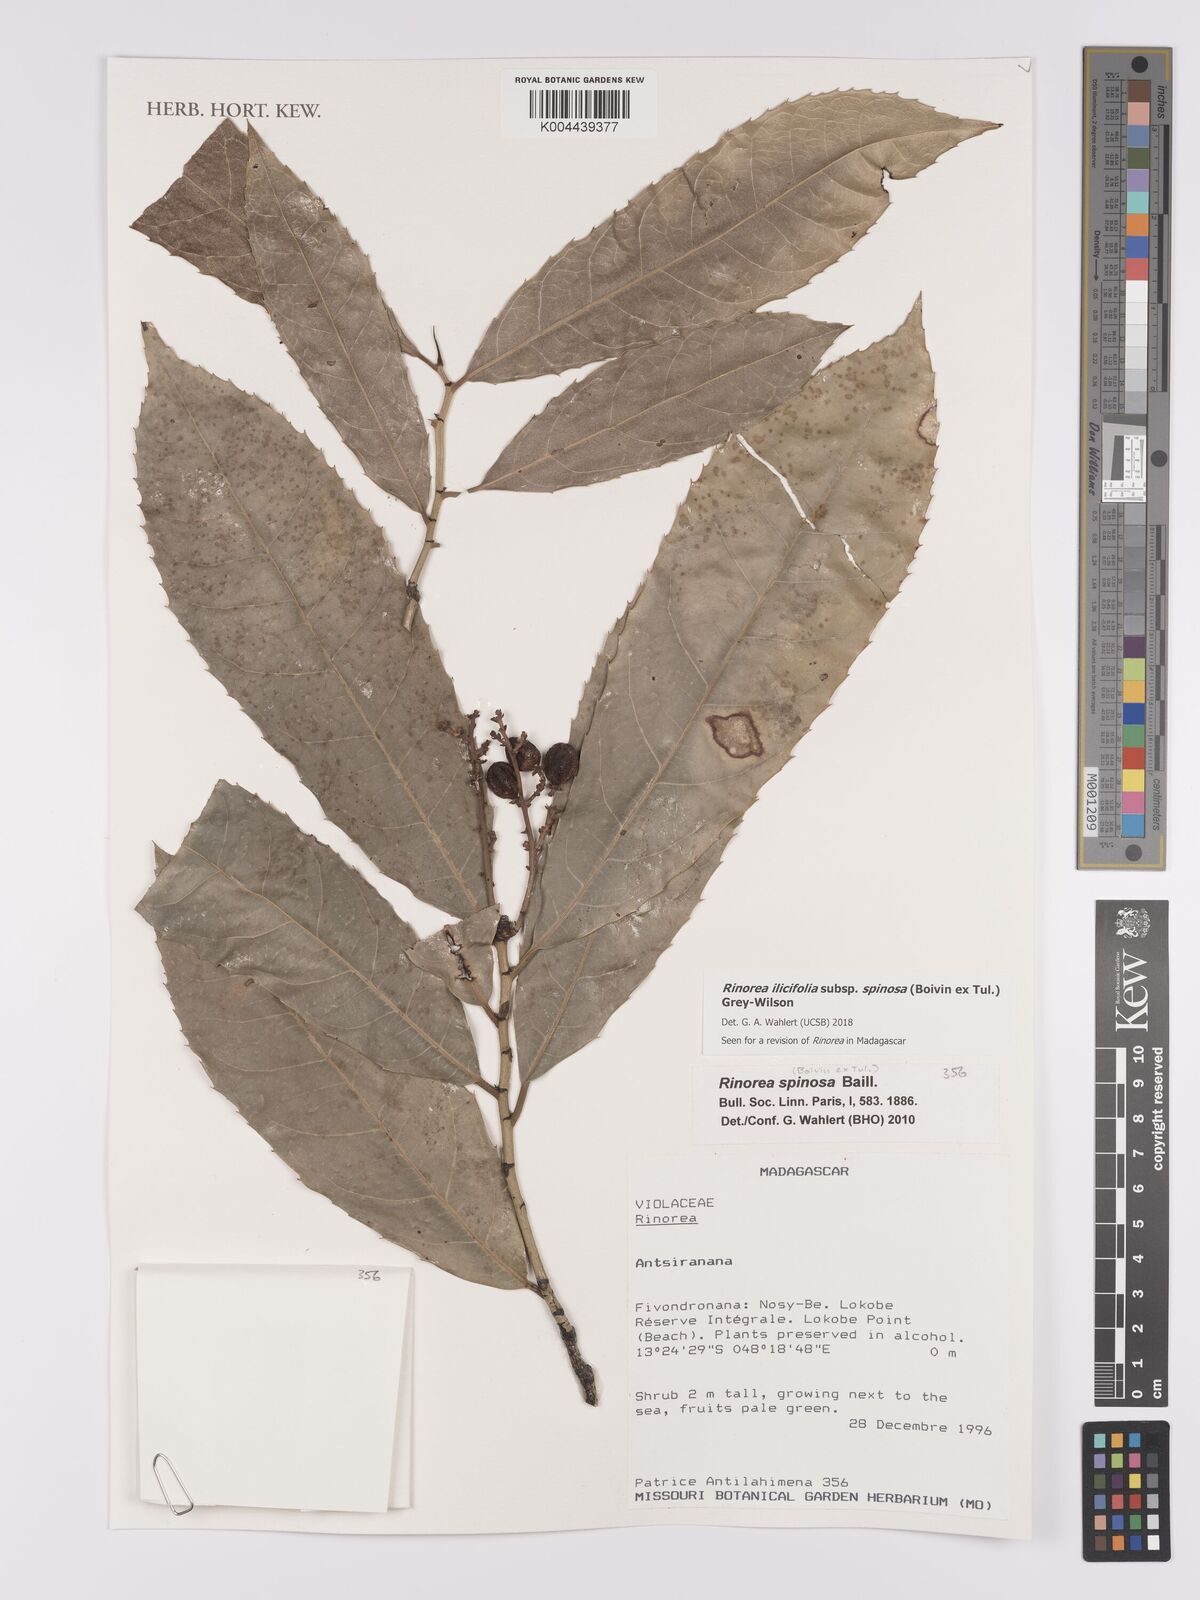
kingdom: Plantae
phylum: Tracheophyta
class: Magnoliopsida
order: Malpighiales
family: Violaceae
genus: Rinorea
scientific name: Rinorea spinosa
